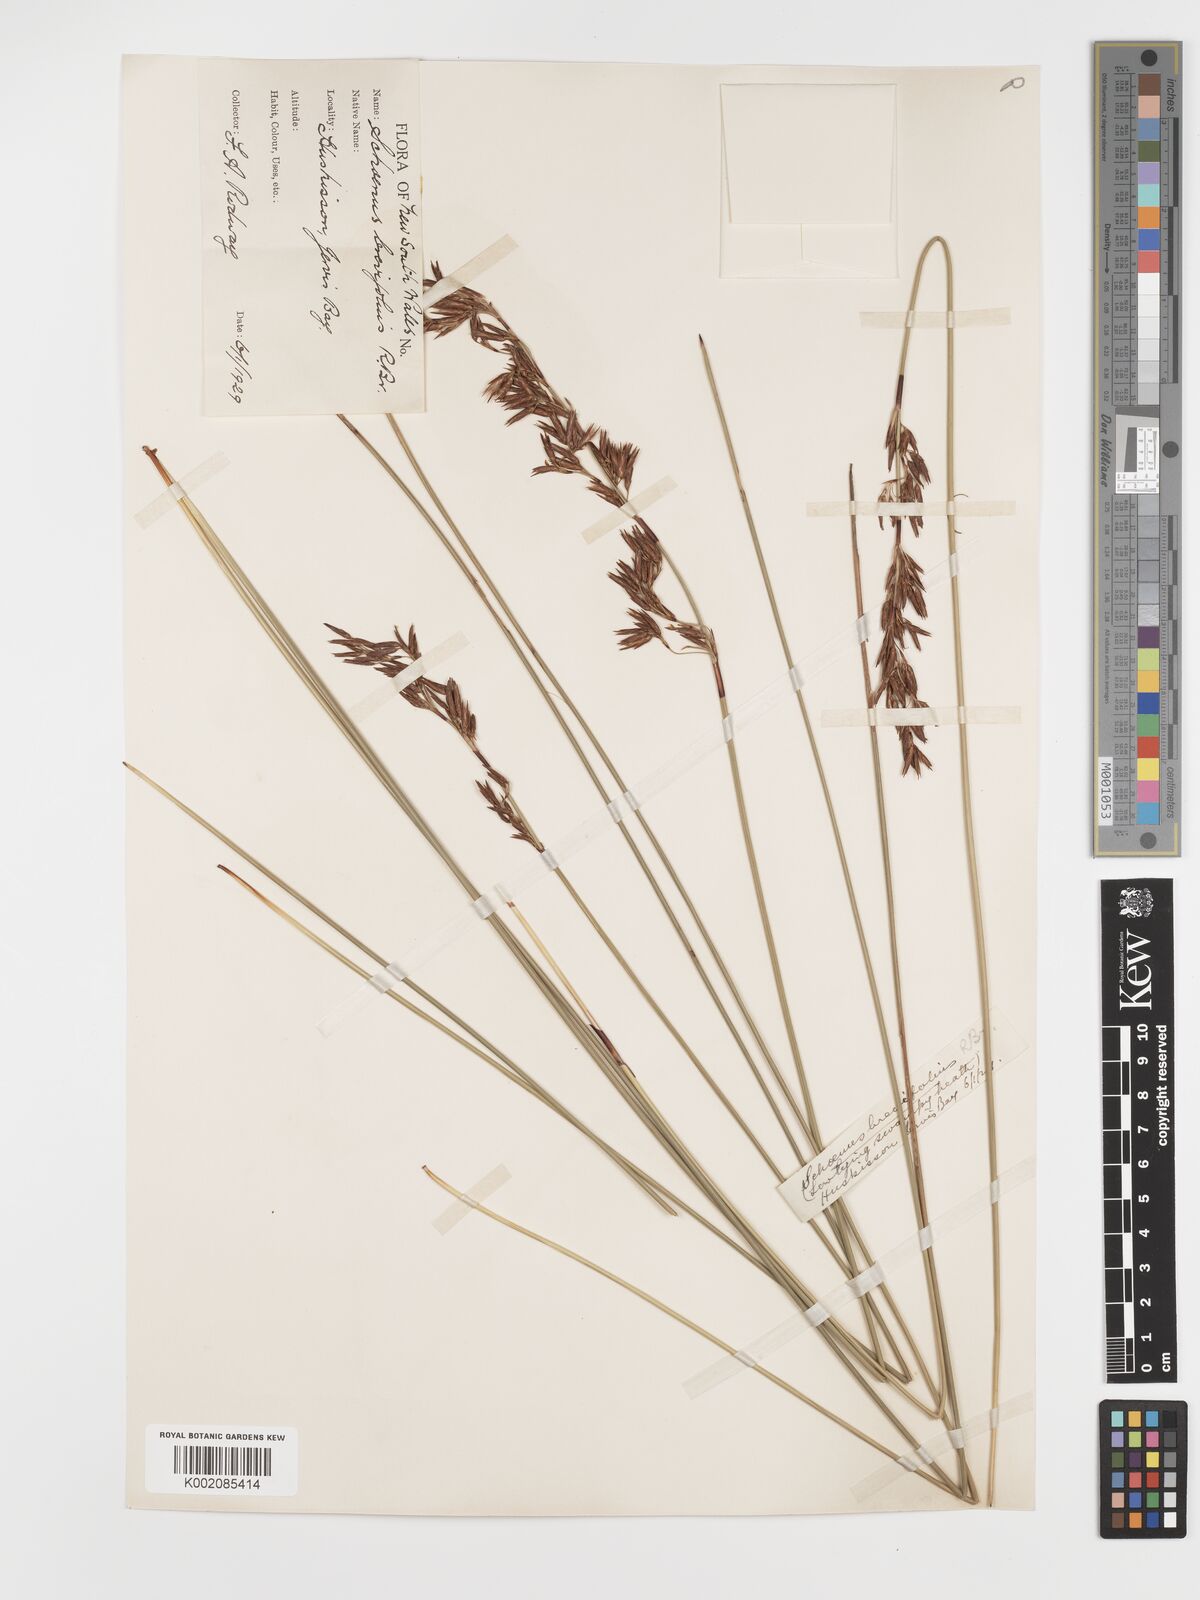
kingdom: Plantae
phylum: Tracheophyta
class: Liliopsida
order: Poales
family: Cyperaceae
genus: Schoenus
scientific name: Schoenus brevifolius
